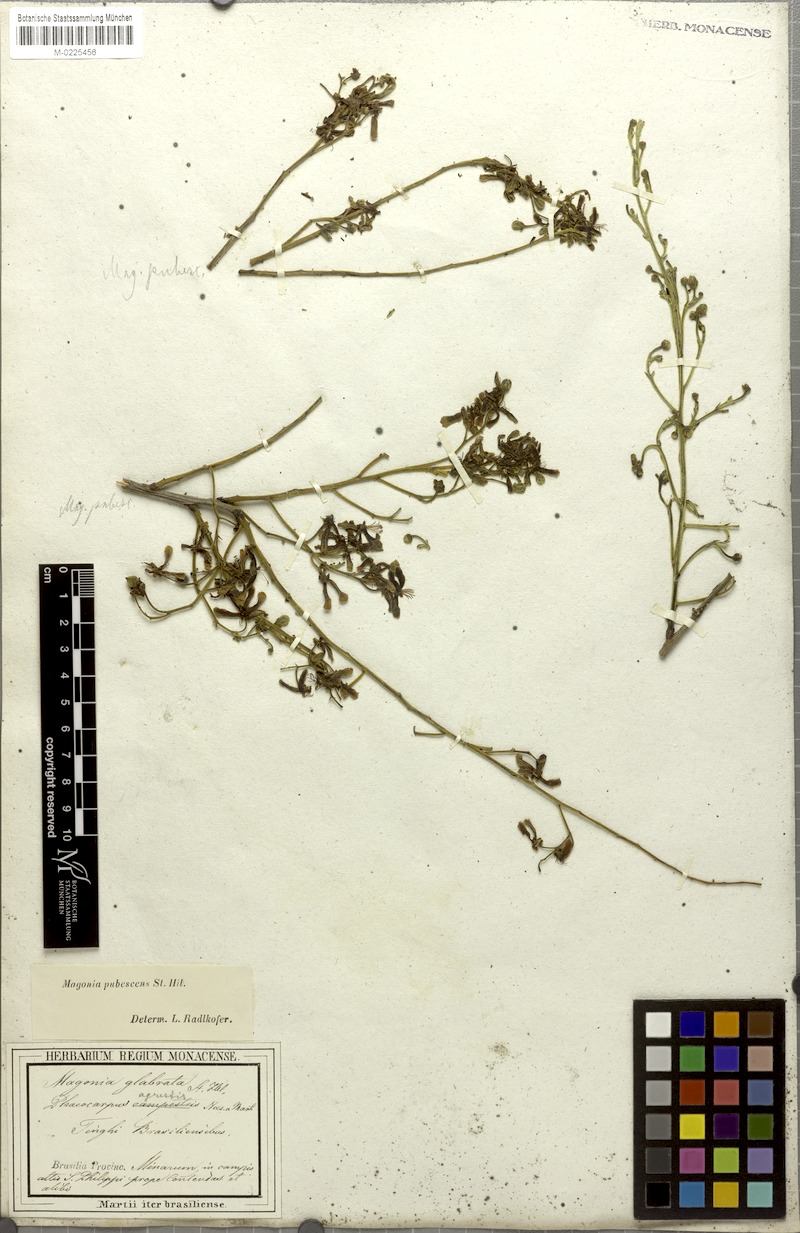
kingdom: Plantae
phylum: Tracheophyta
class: Magnoliopsida
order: Sapindales
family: Sapindaceae
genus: Magonia
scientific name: Magonia pubescens
